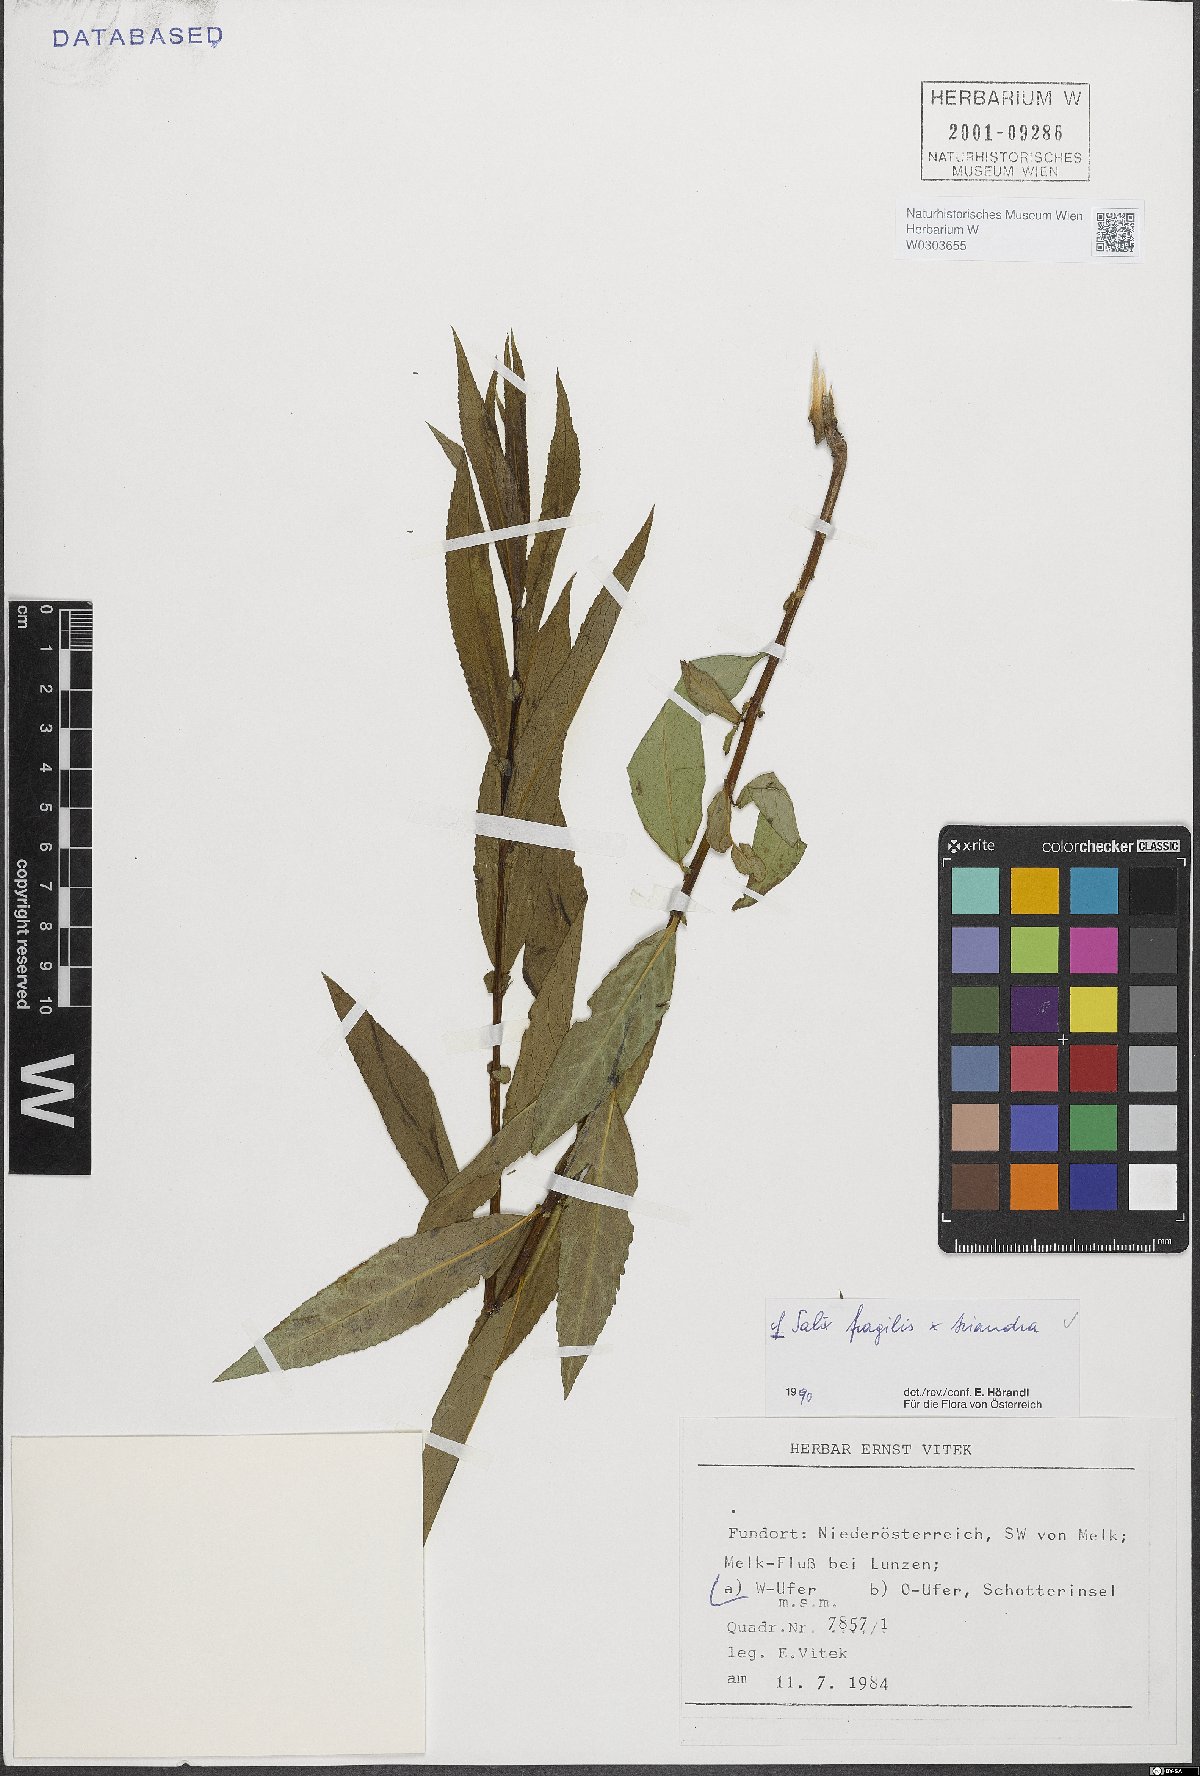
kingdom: Plantae
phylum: Tracheophyta
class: Magnoliopsida
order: Malpighiales
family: Salicaceae
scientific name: Salicaceae
